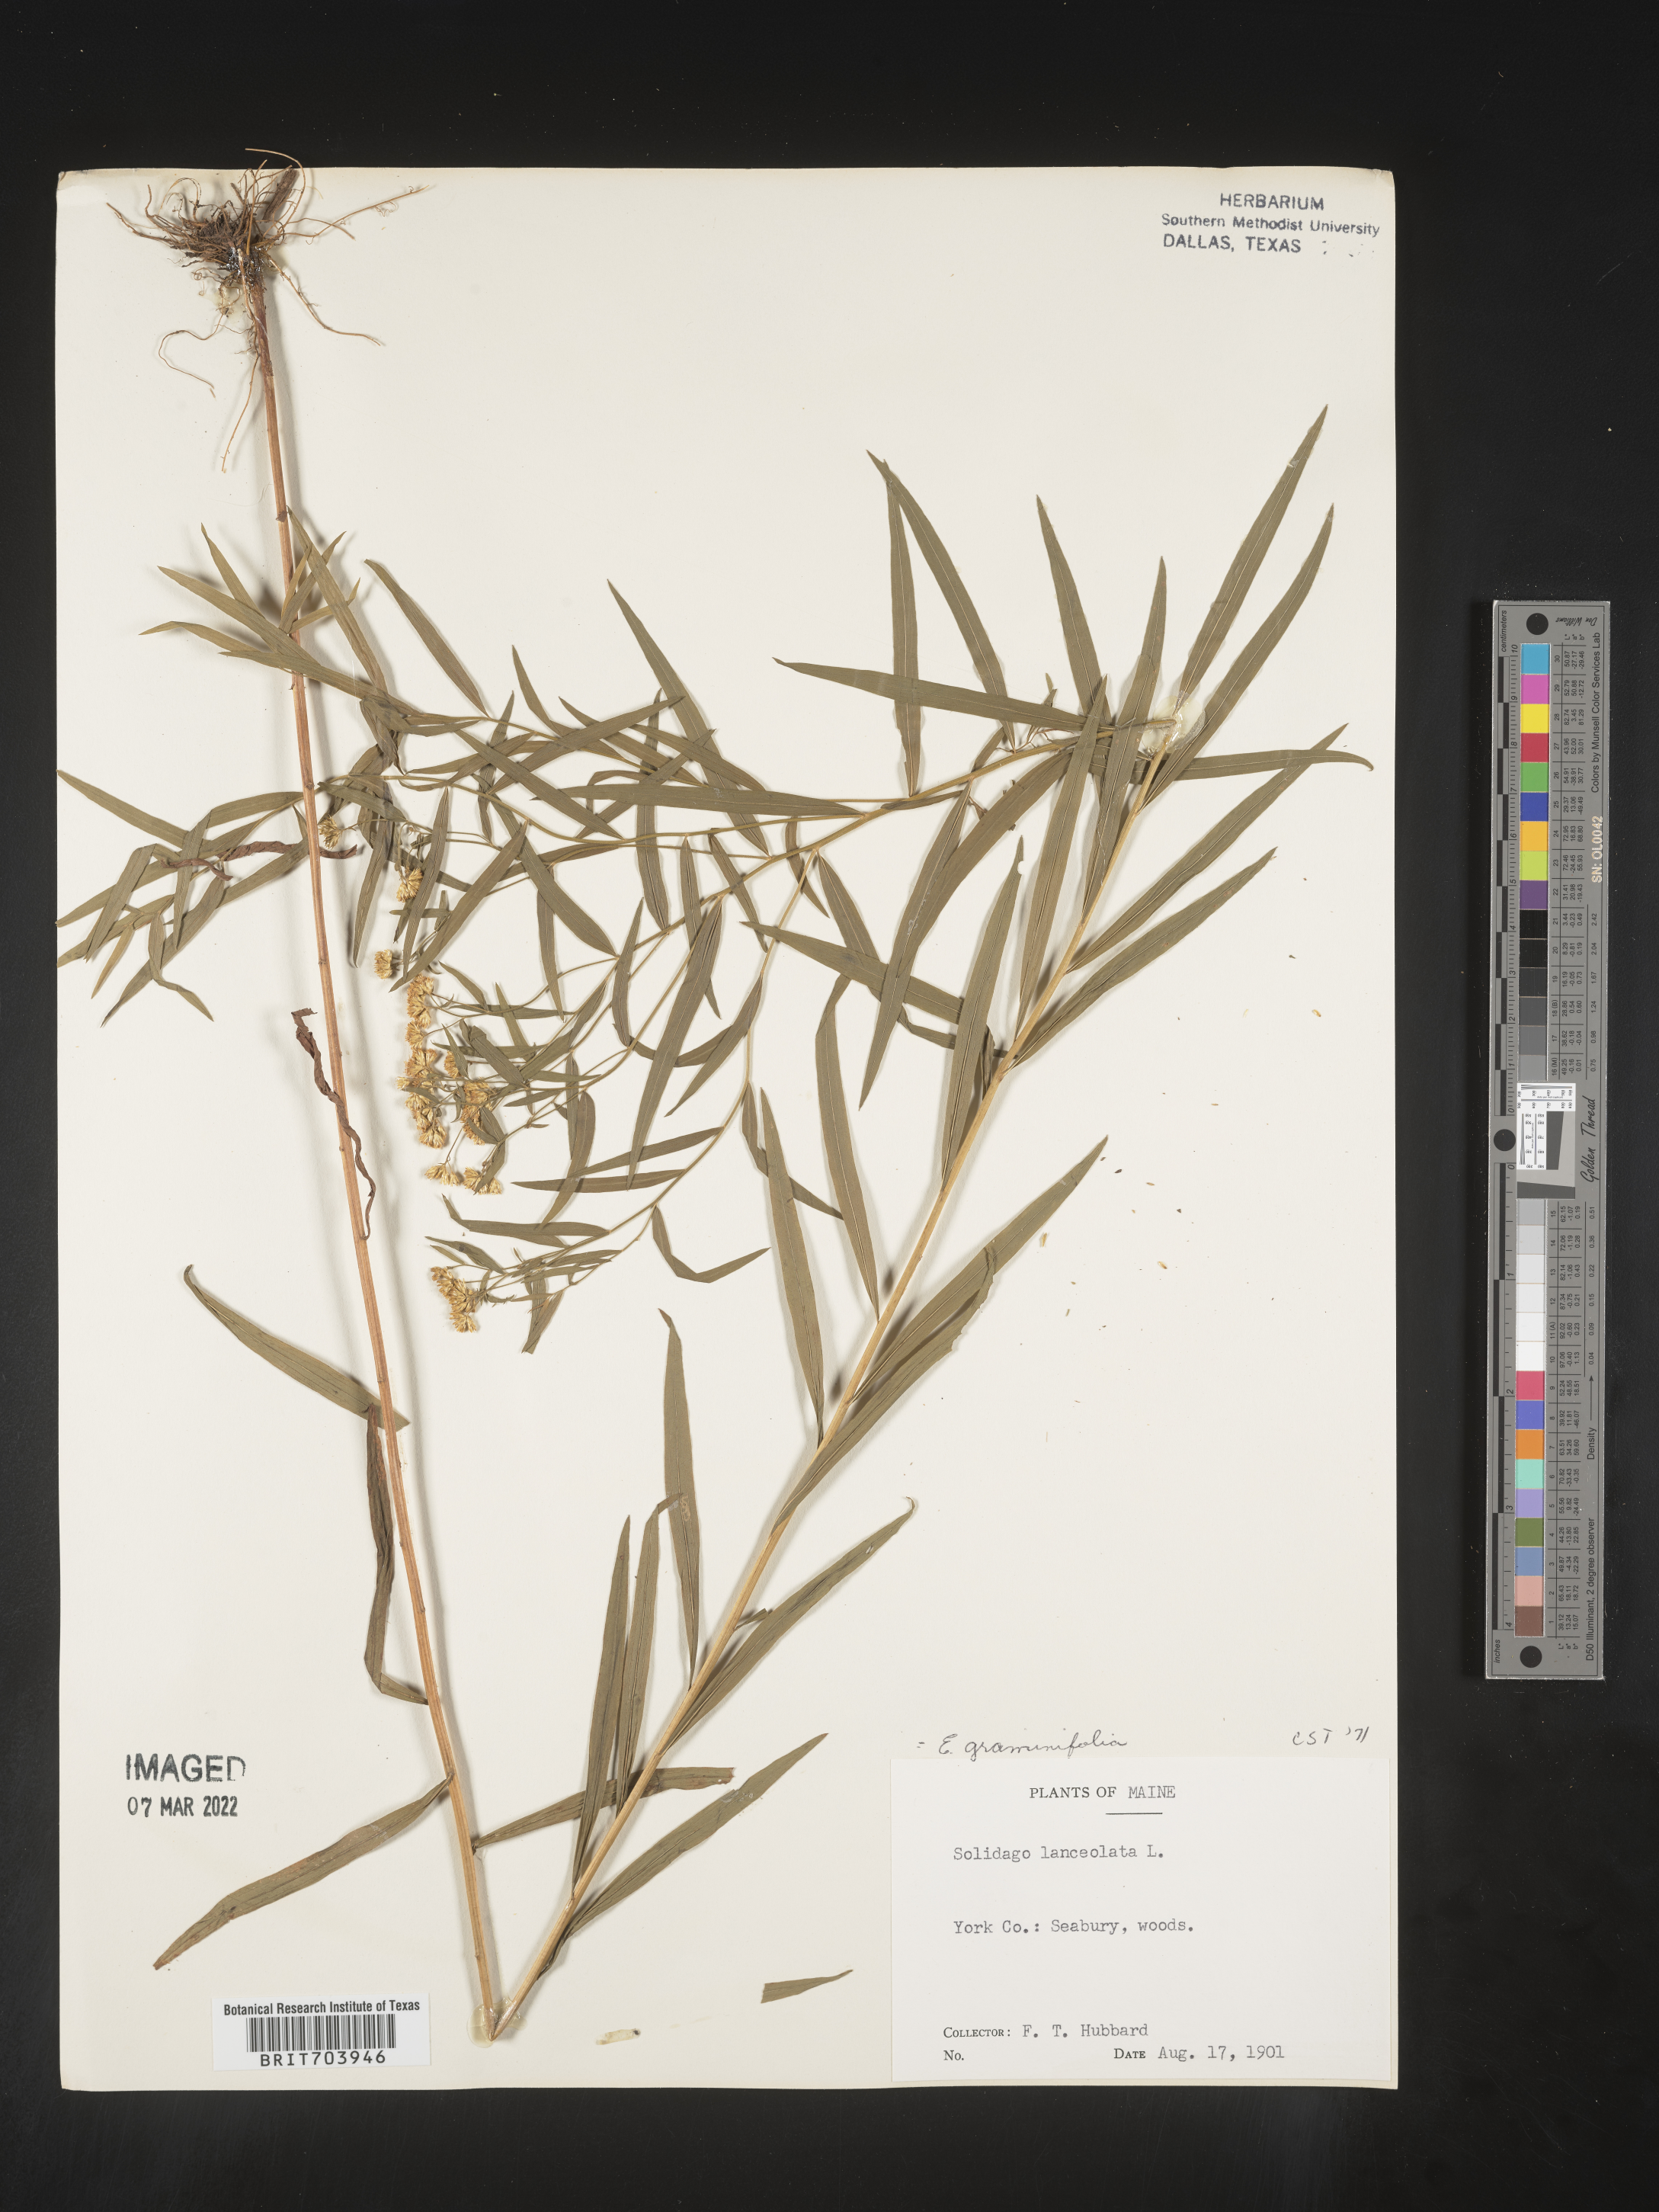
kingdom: Plantae
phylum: Tracheophyta
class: Magnoliopsida
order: Asterales
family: Asteraceae
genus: Euthamia
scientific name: Euthamia graminifolia
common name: Common goldentop
